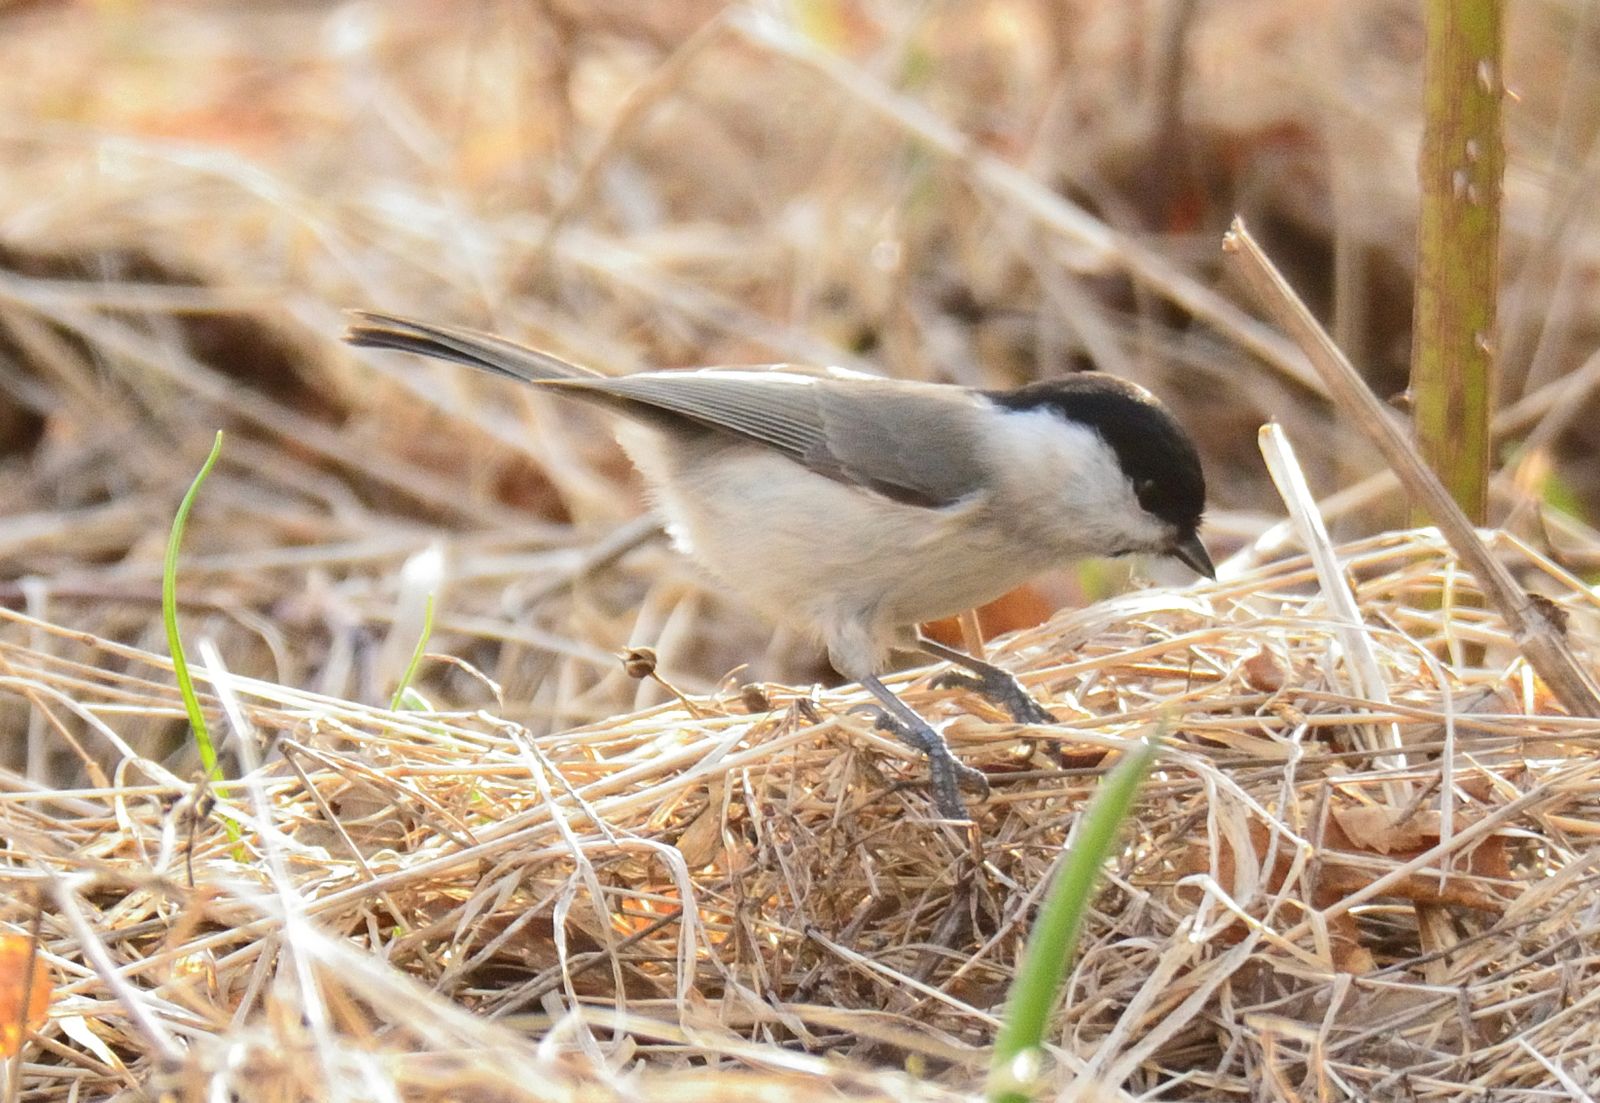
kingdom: Animalia
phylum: Chordata
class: Aves
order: Passeriformes
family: Paridae
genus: Poecile
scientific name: Poecile palustris
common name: Marsh tit
